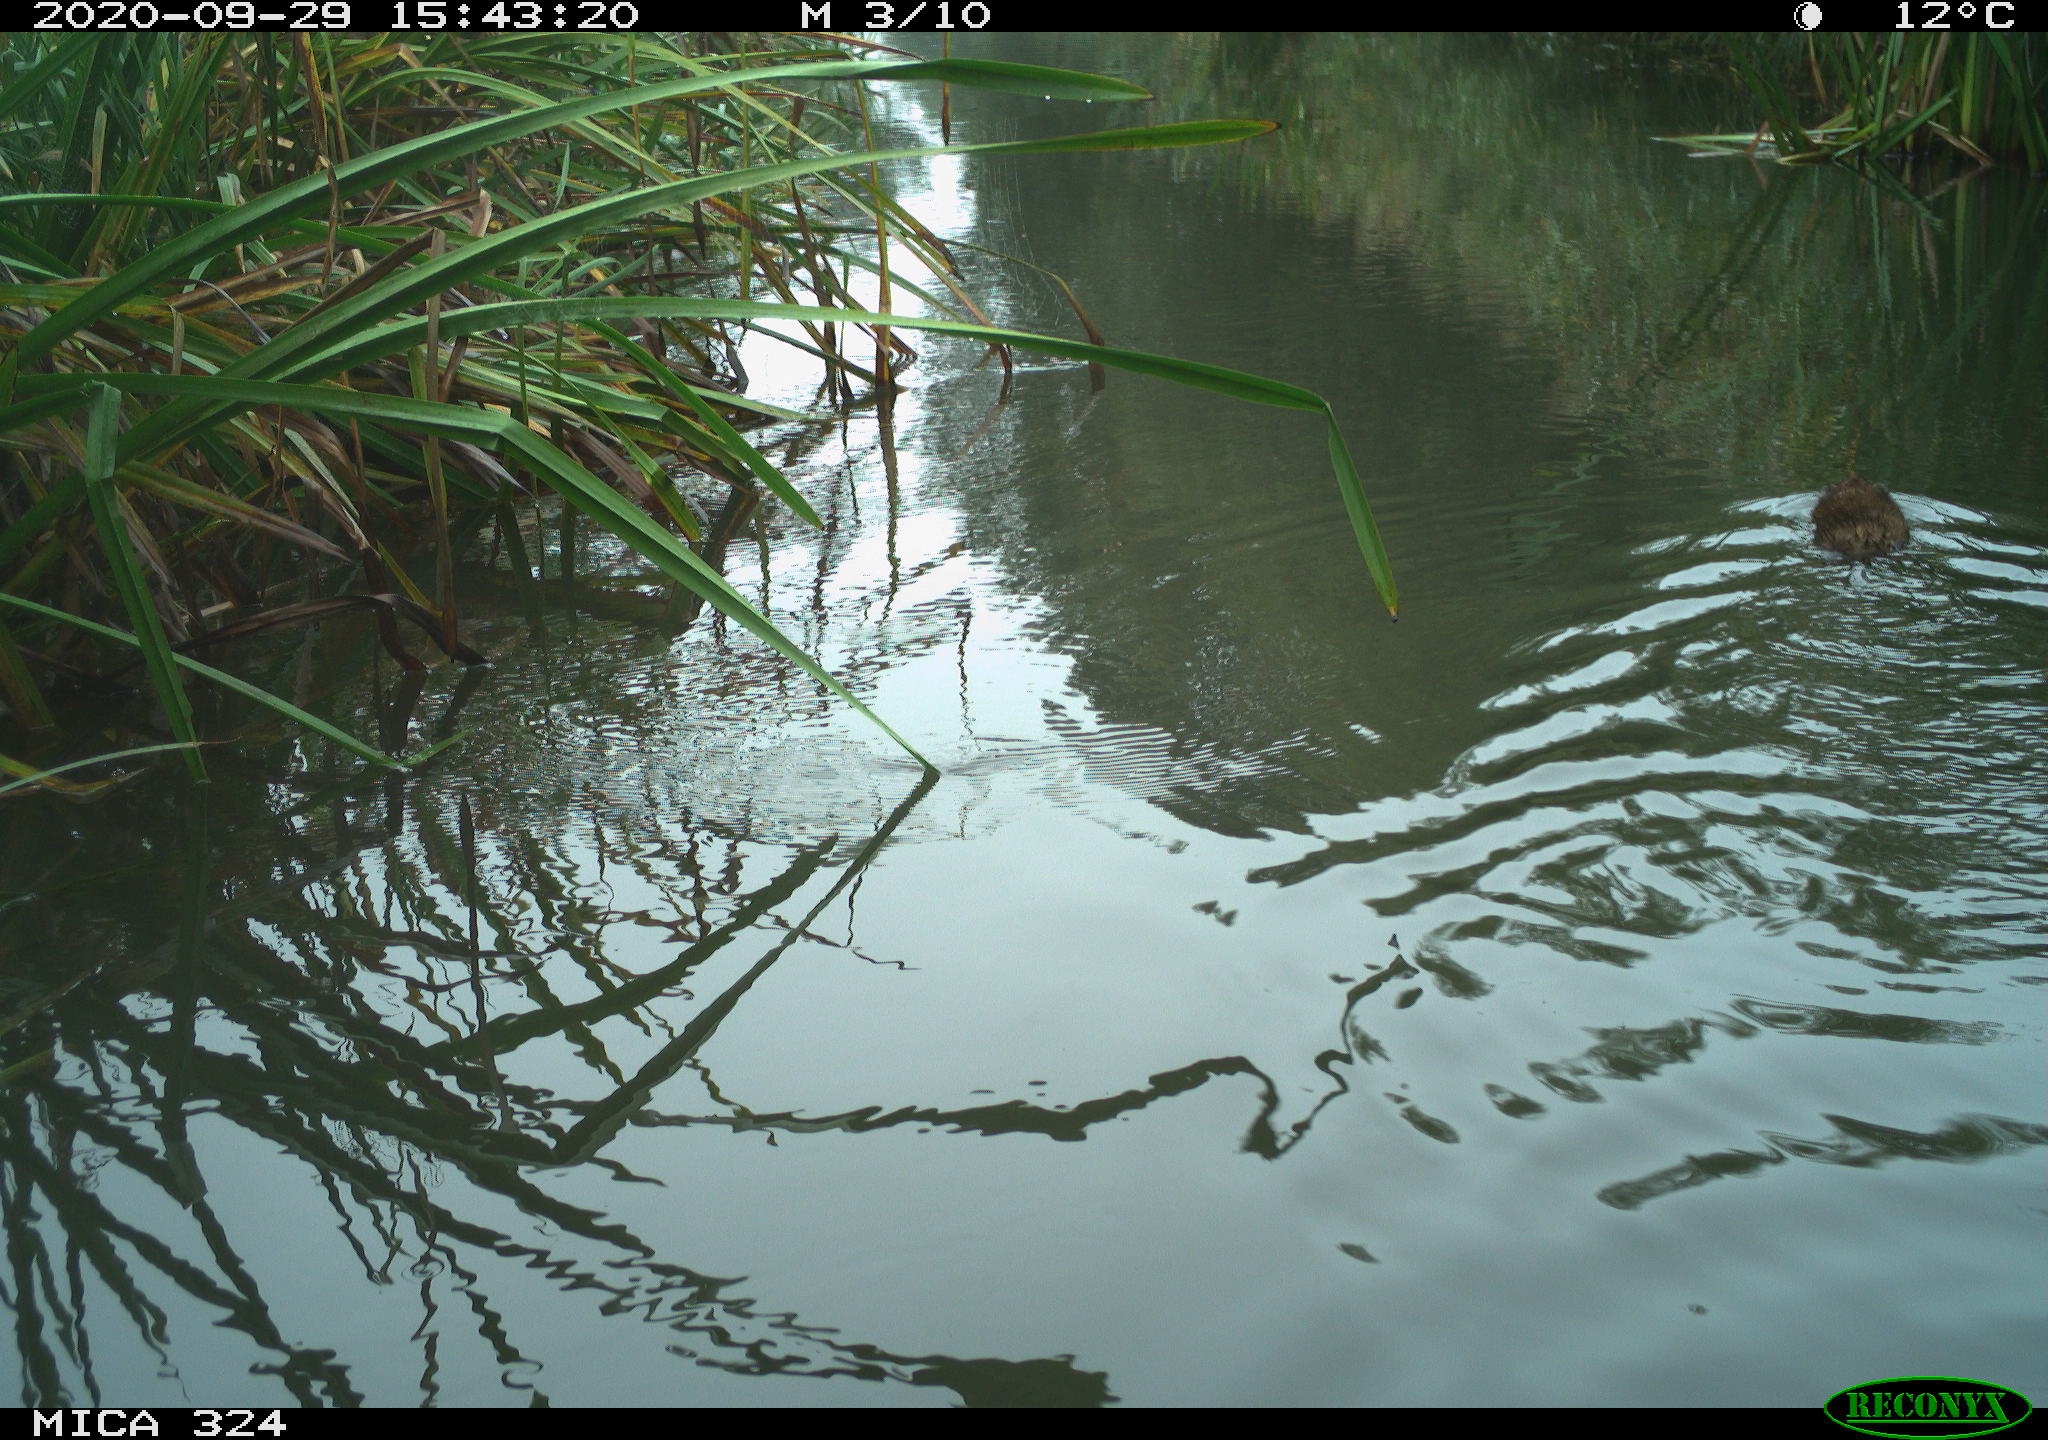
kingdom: Animalia
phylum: Chordata
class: Mammalia
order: Rodentia
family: Cricetidae
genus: Ondatra
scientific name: Ondatra zibethicus
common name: Muskrat
